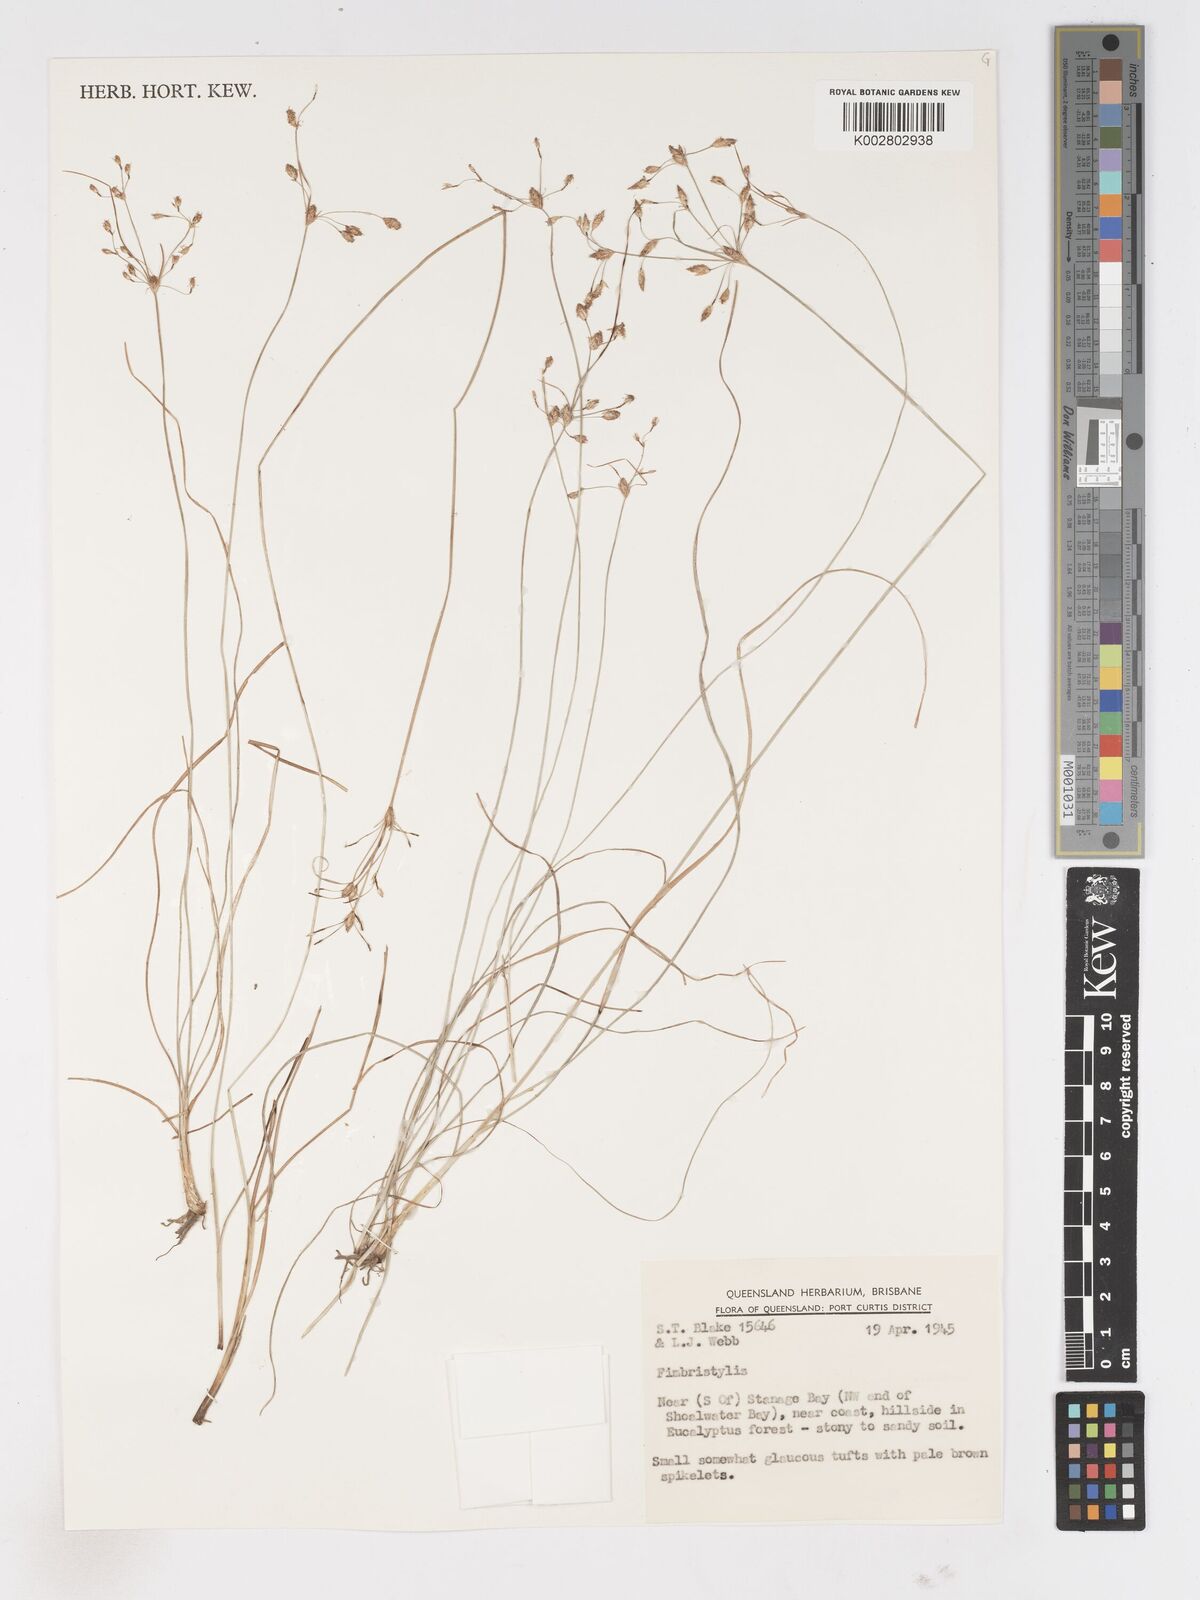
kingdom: Plantae
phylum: Tracheophyta
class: Liliopsida
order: Poales
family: Cyperaceae
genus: Fimbristylis
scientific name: Fimbristylis
